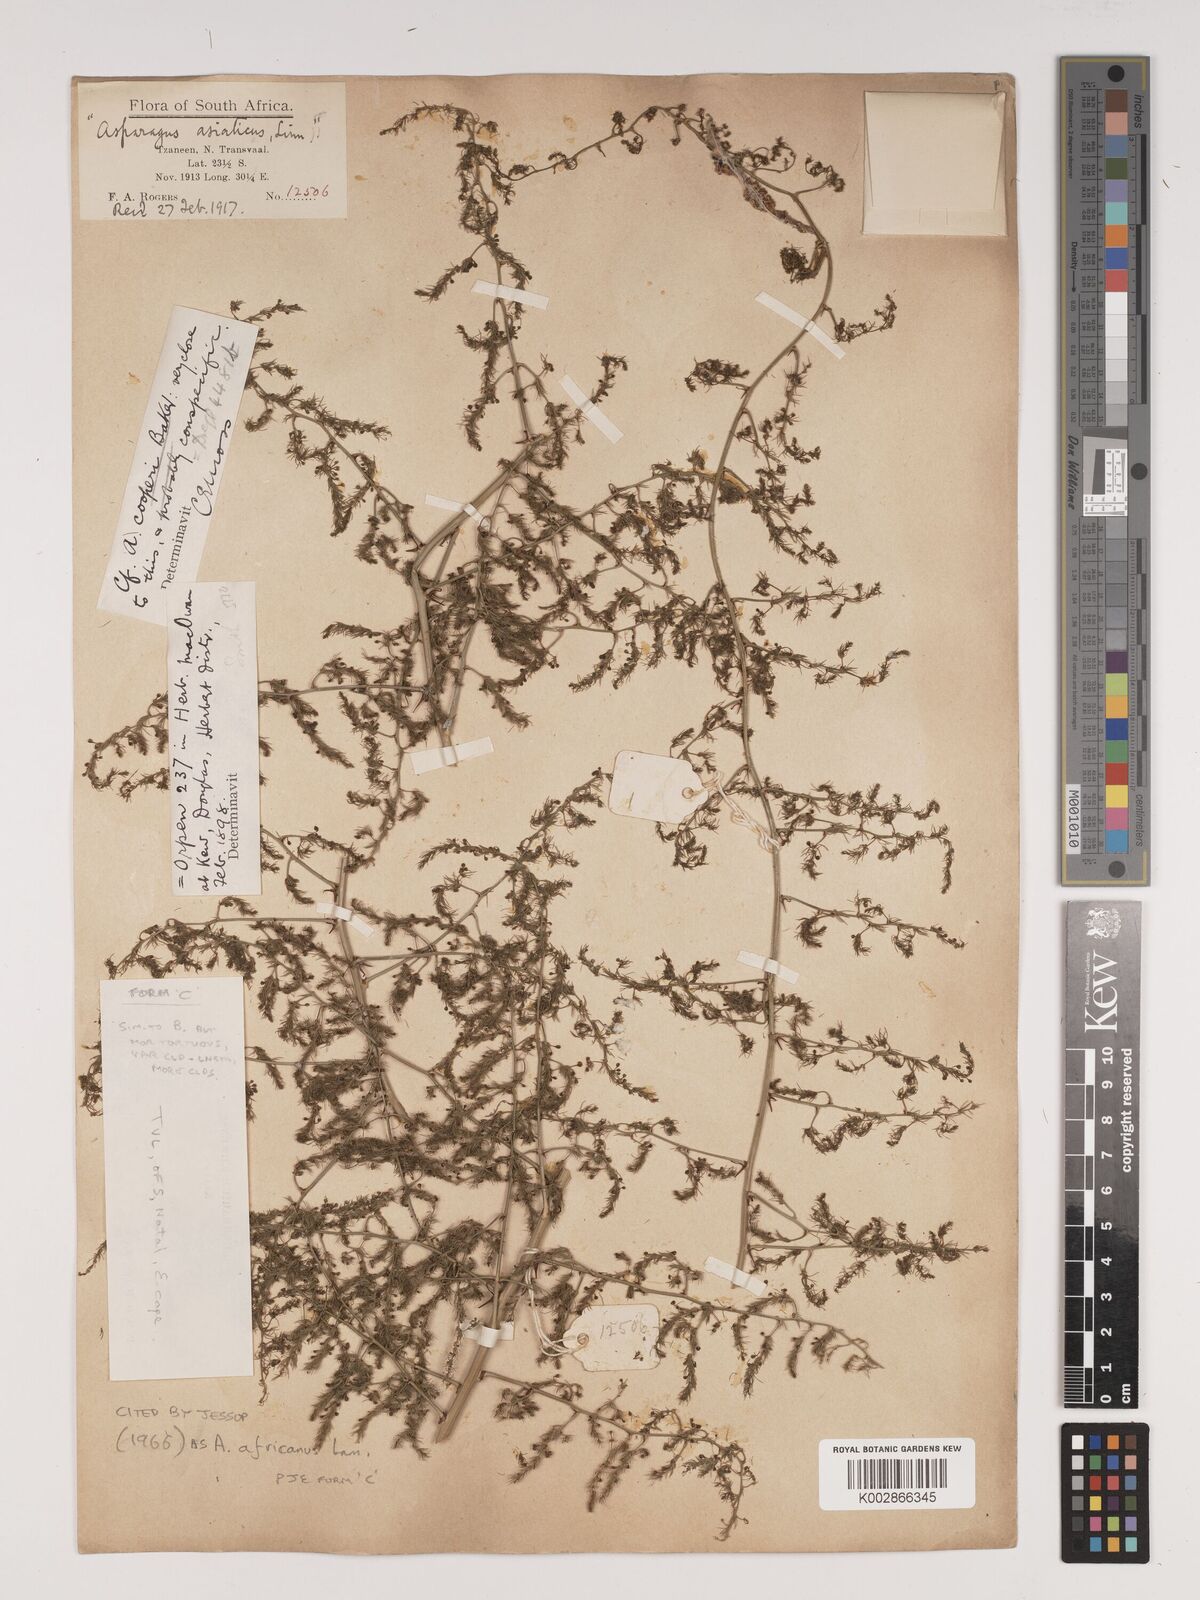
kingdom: Plantae
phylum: Tracheophyta
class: Liliopsida
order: Asparagales
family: Asparagaceae
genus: Asparagus
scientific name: Asparagus africanus
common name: Asparagus-fern
